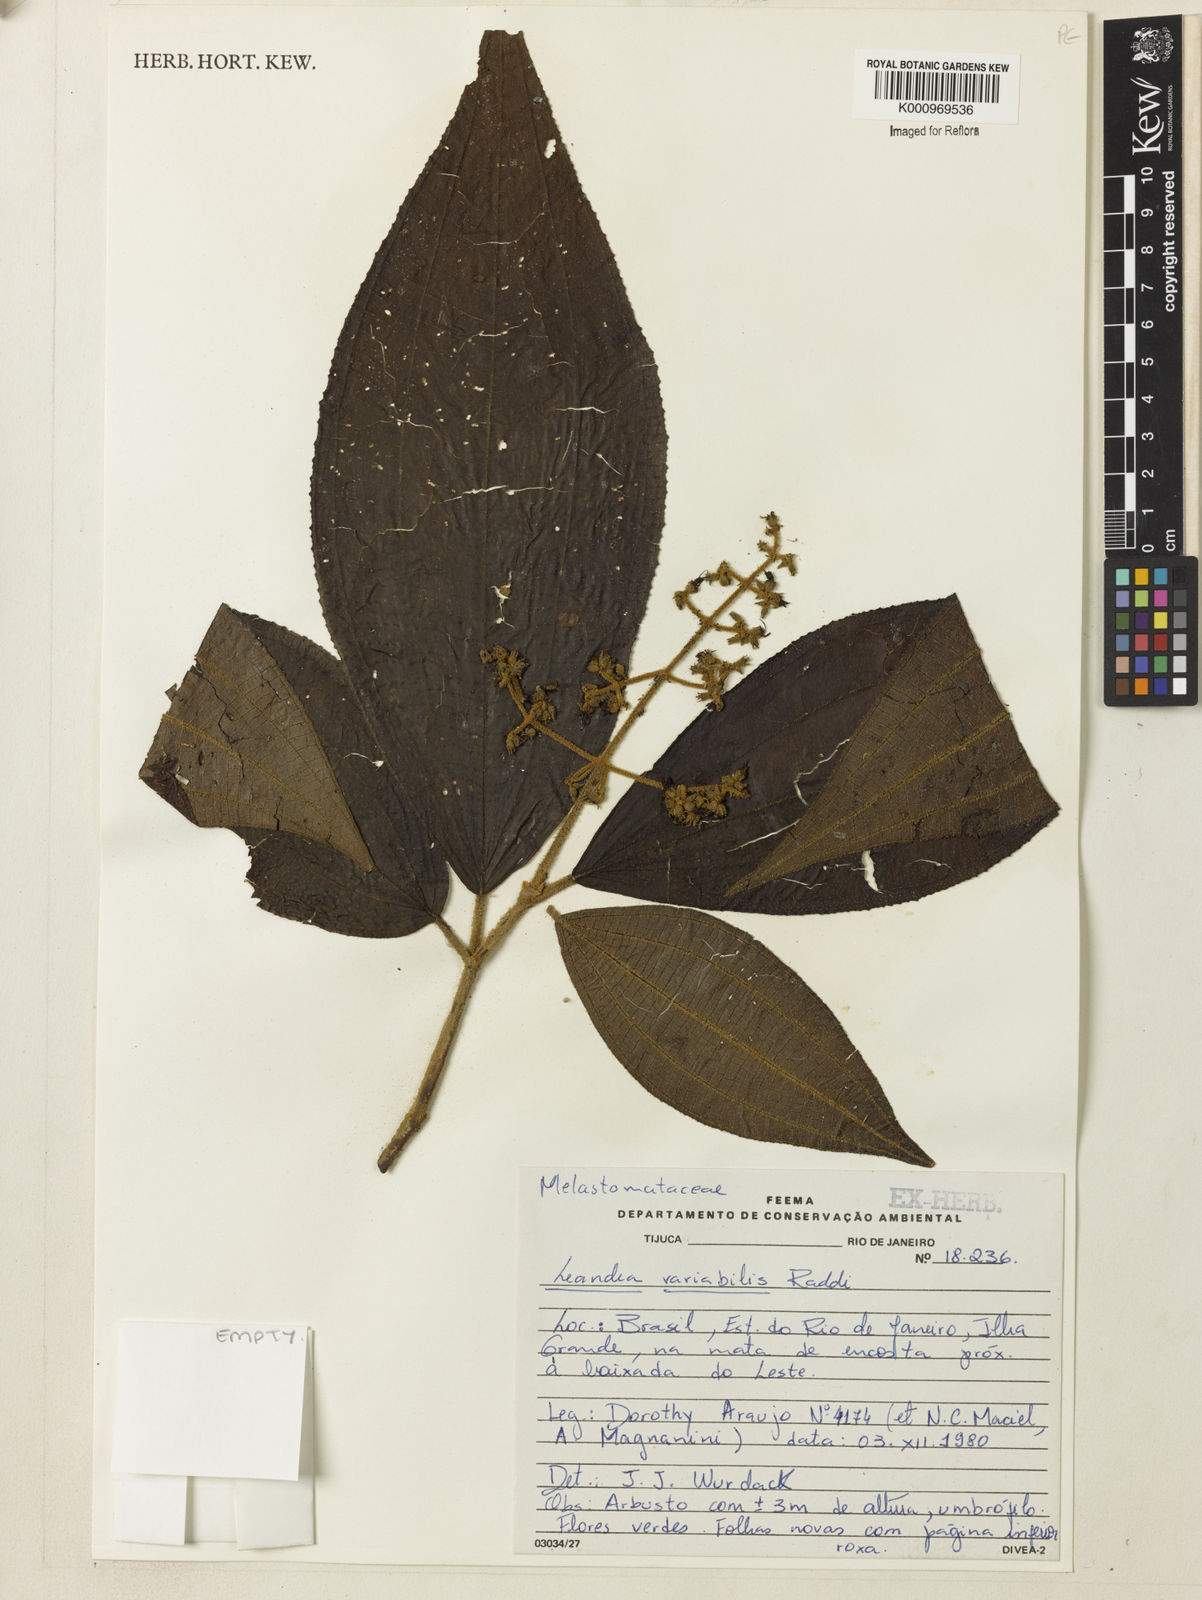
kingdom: Plantae
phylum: Tracheophyta
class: Magnoliopsida
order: Myrtales
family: Melastomataceae
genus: Miconia
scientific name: Miconia dasytricha
